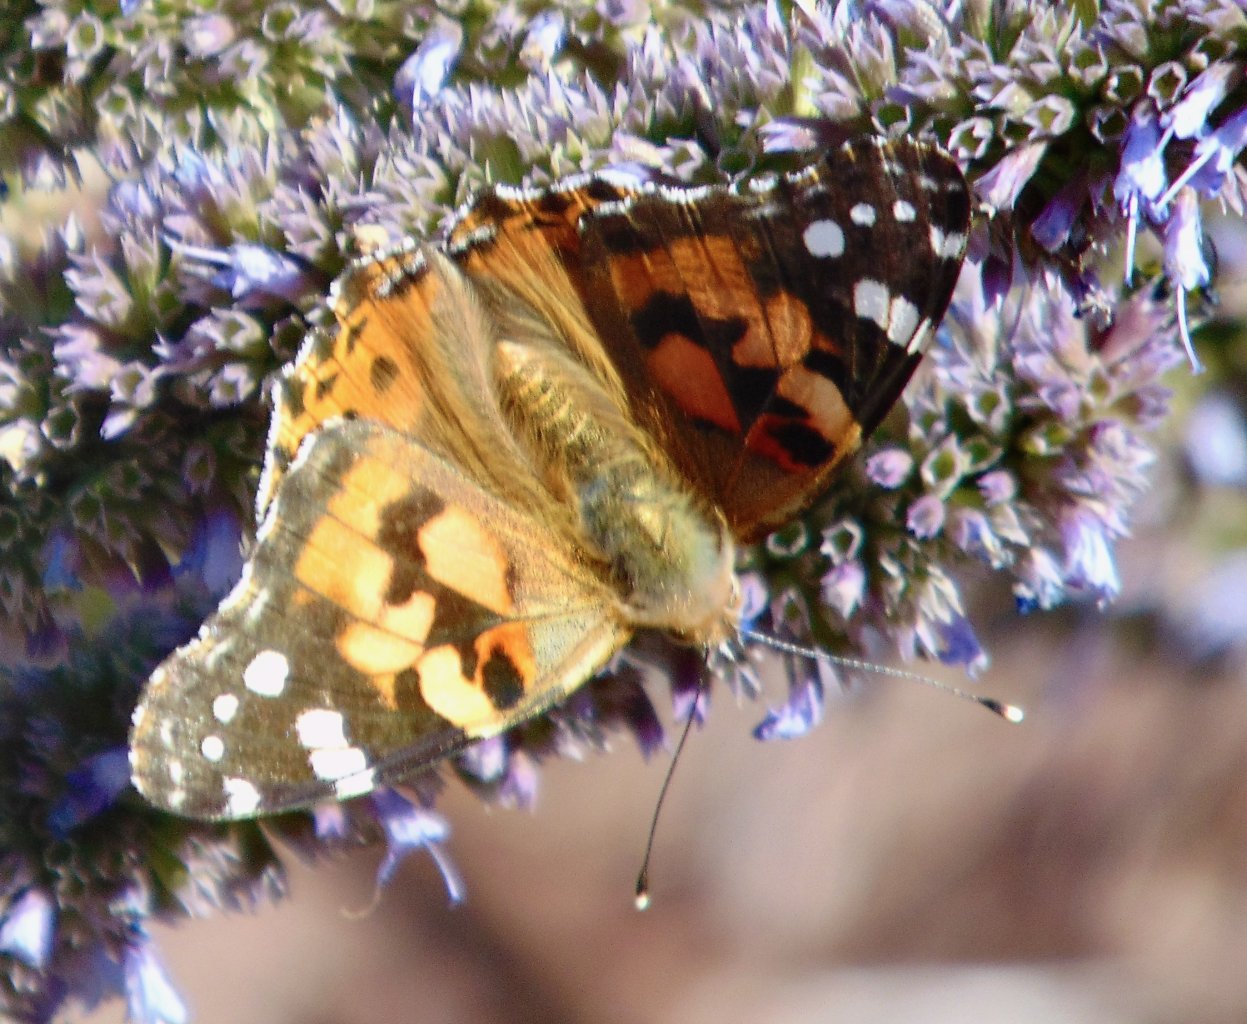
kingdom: Animalia
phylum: Arthropoda
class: Insecta
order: Lepidoptera
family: Nymphalidae
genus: Vanessa
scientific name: Vanessa cardui
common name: Painted Lady
